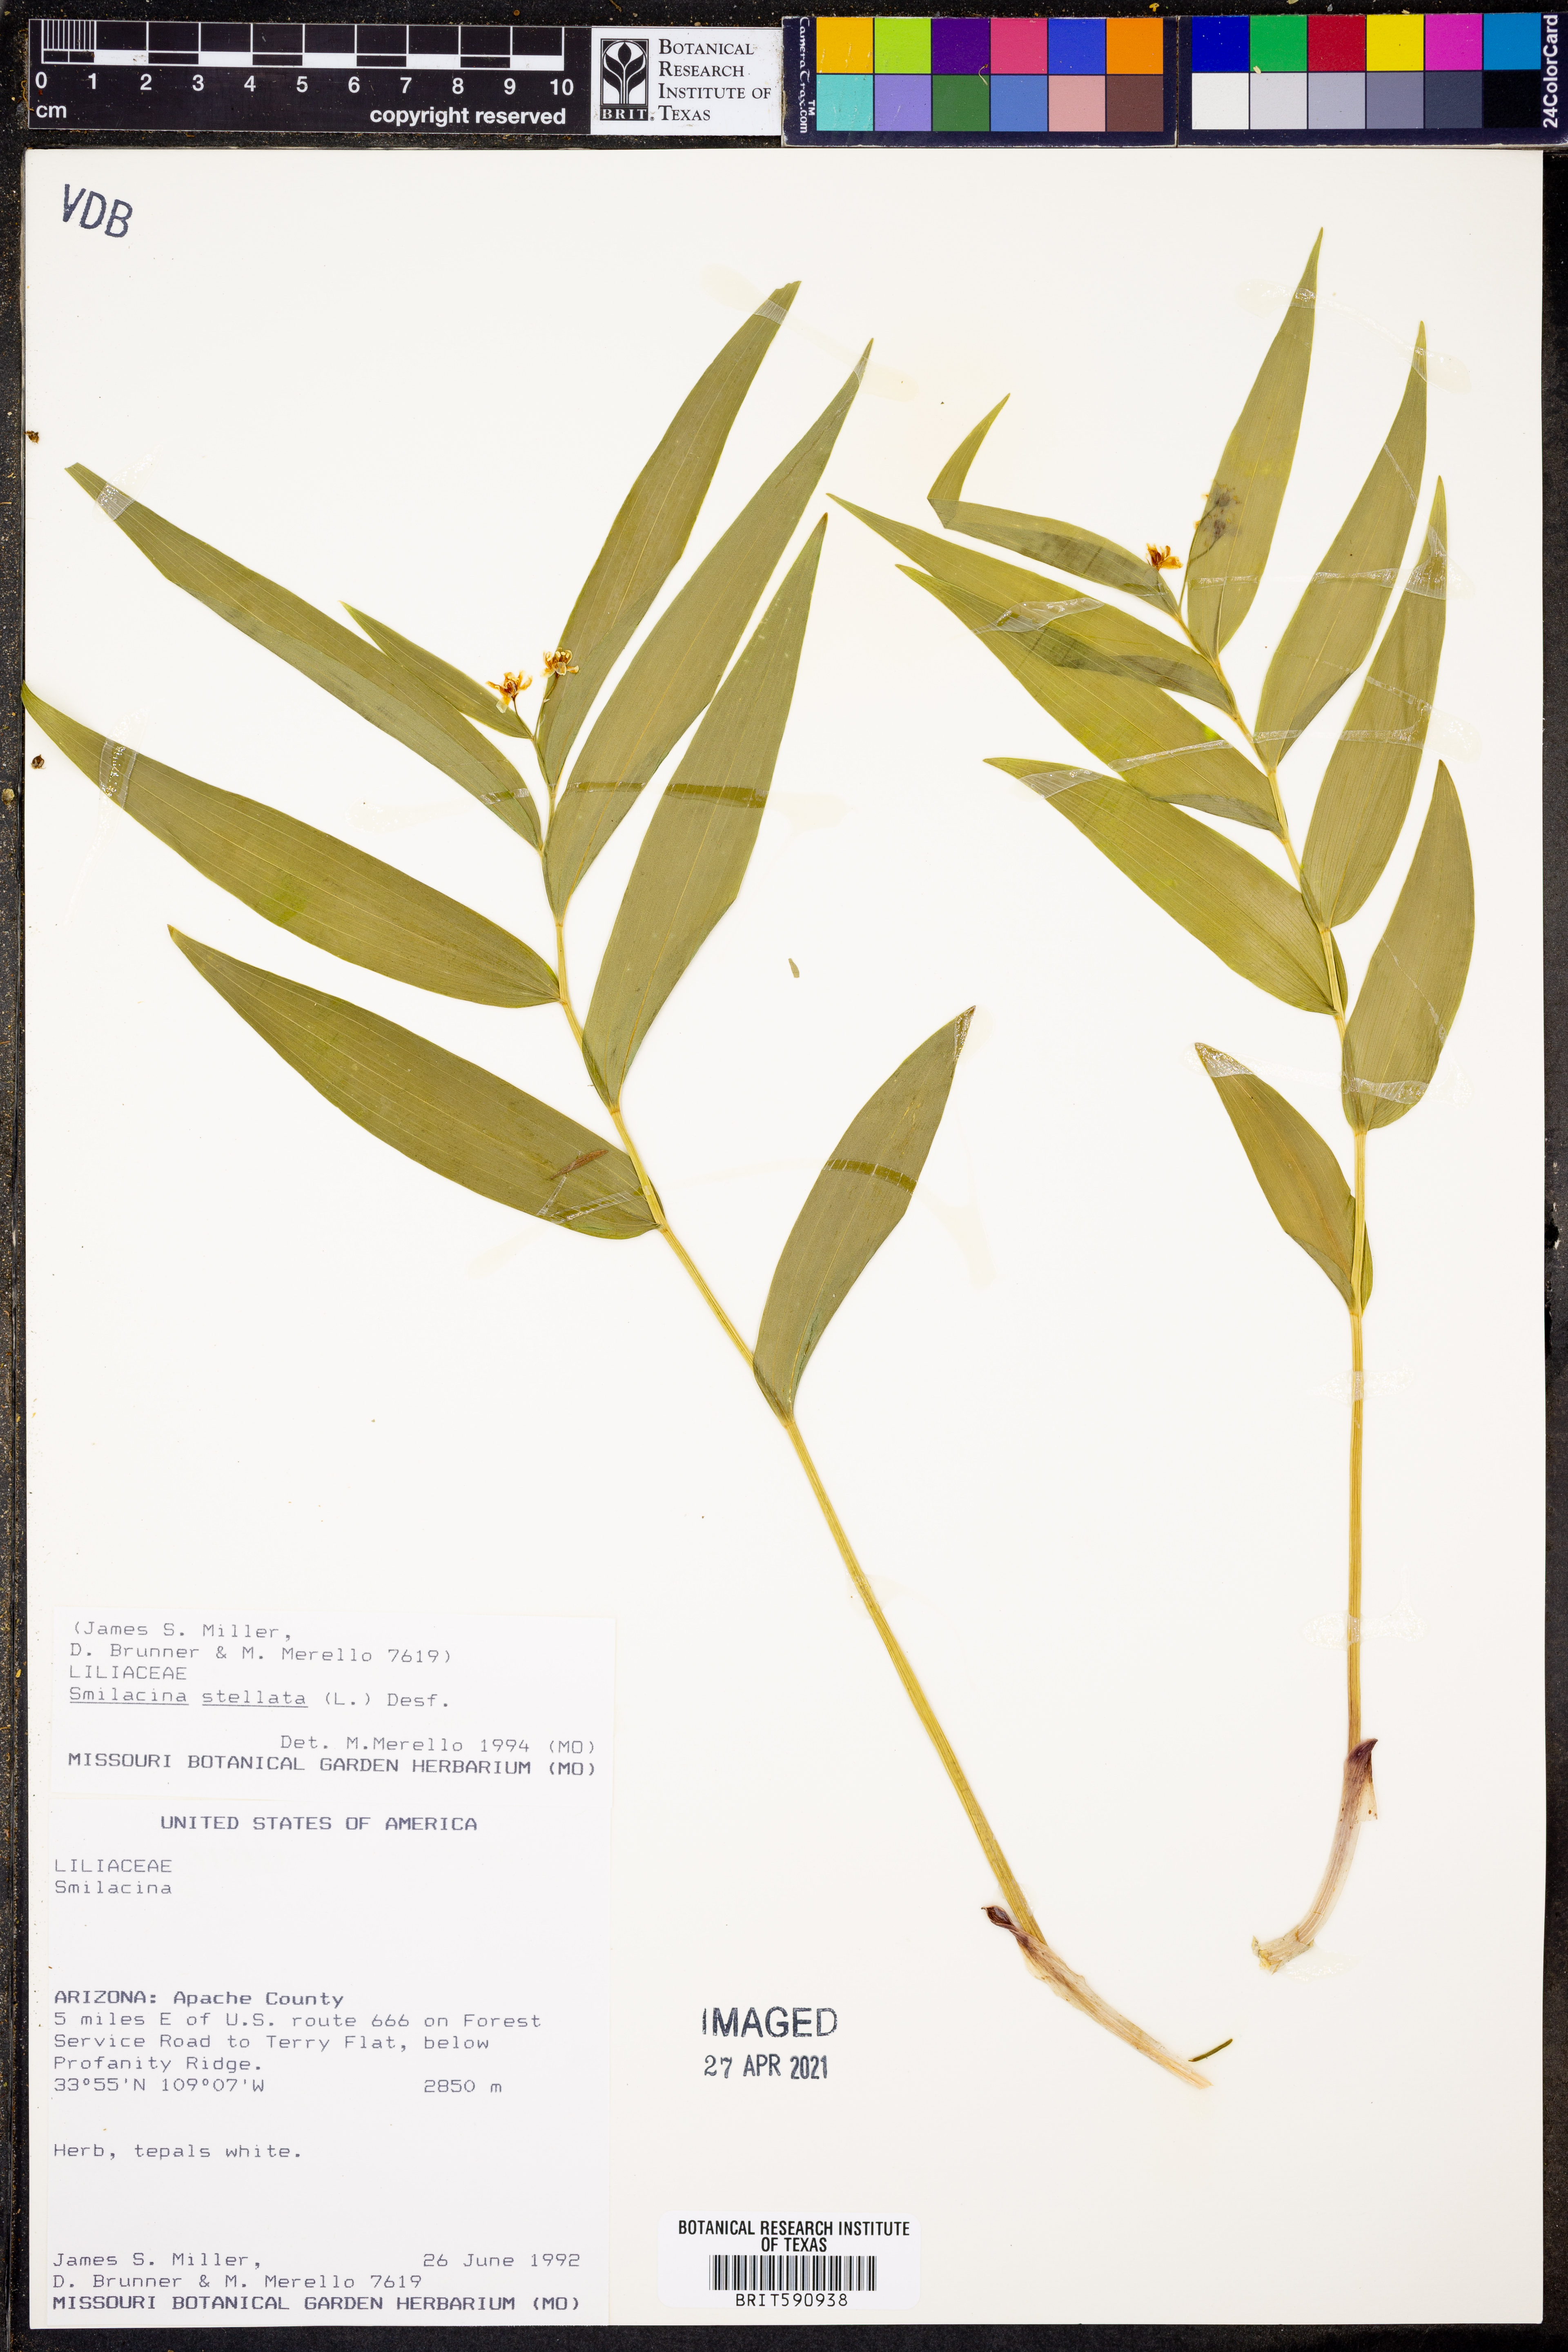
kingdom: Plantae
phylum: Tracheophyta
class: Liliopsida
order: Asparagales
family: Asparagaceae
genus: Maianthemum
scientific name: Maianthemum stellatum
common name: Little false solomon's seal
